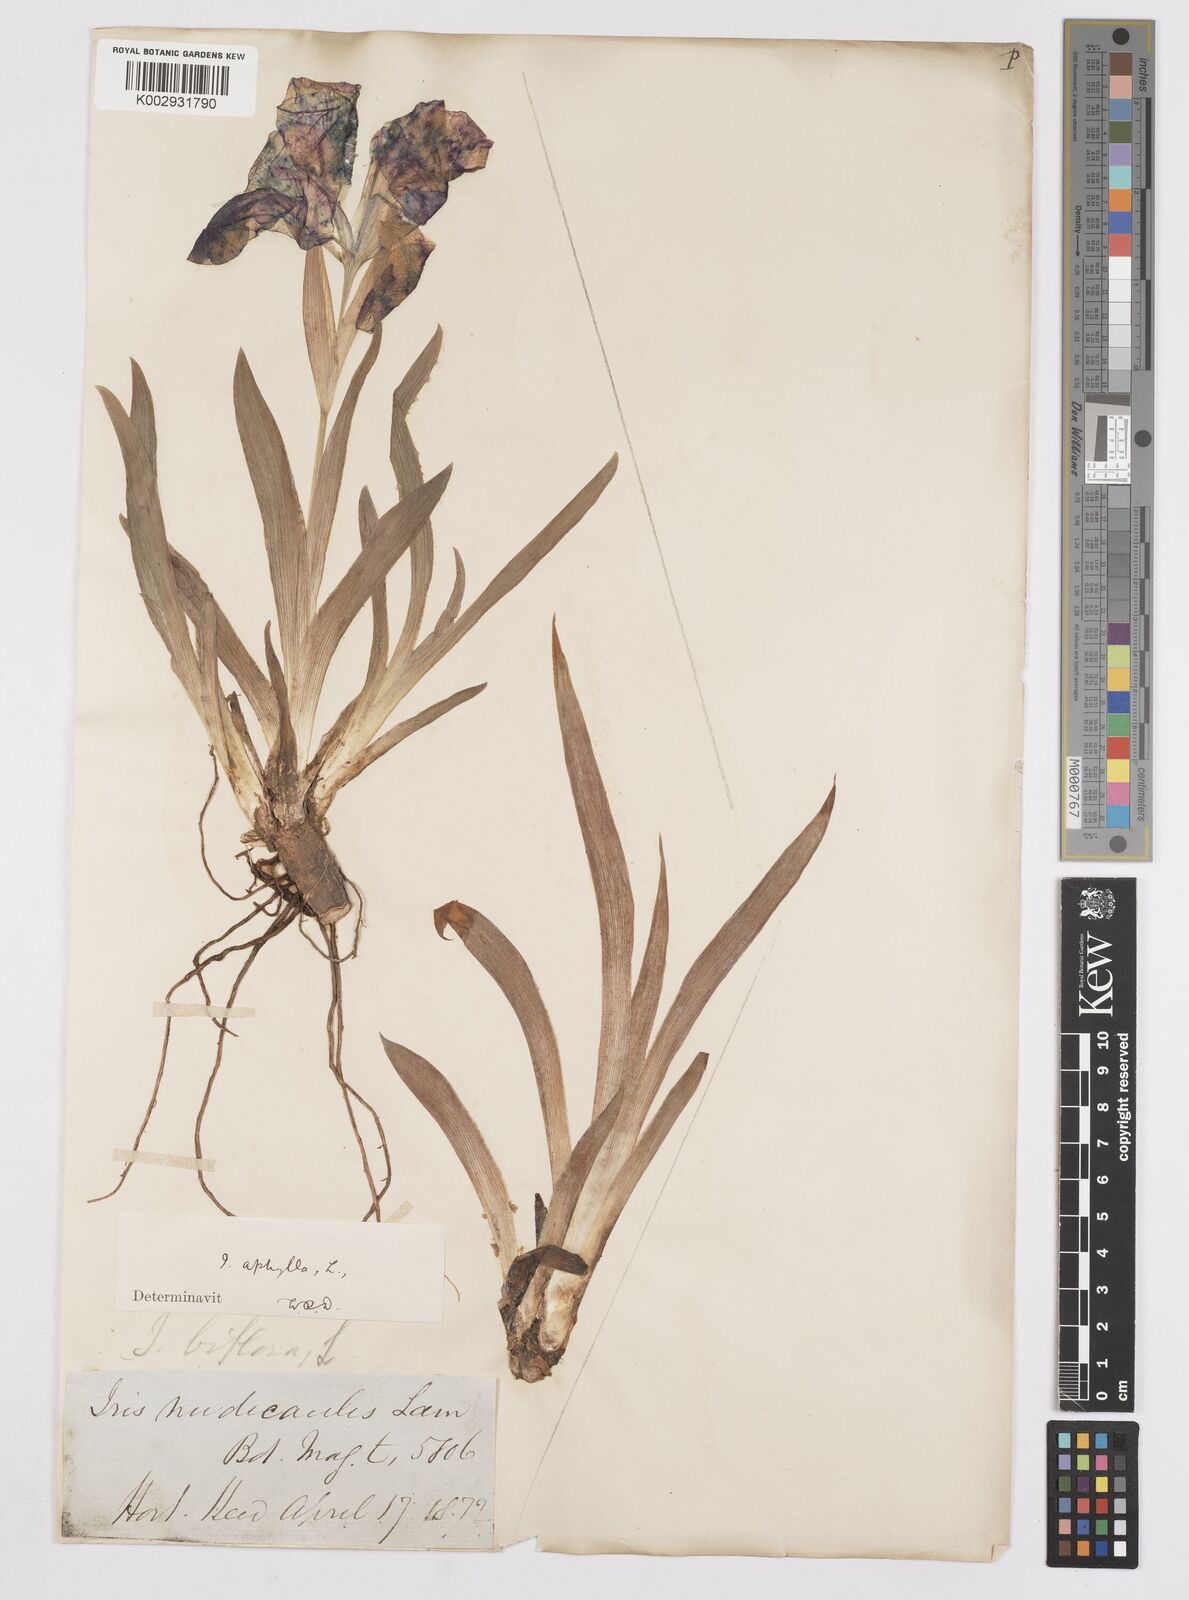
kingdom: Plantae
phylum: Tracheophyta
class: Liliopsida
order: Asparagales
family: Iridaceae
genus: Iris
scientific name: Iris aphylla
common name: Stool iris
